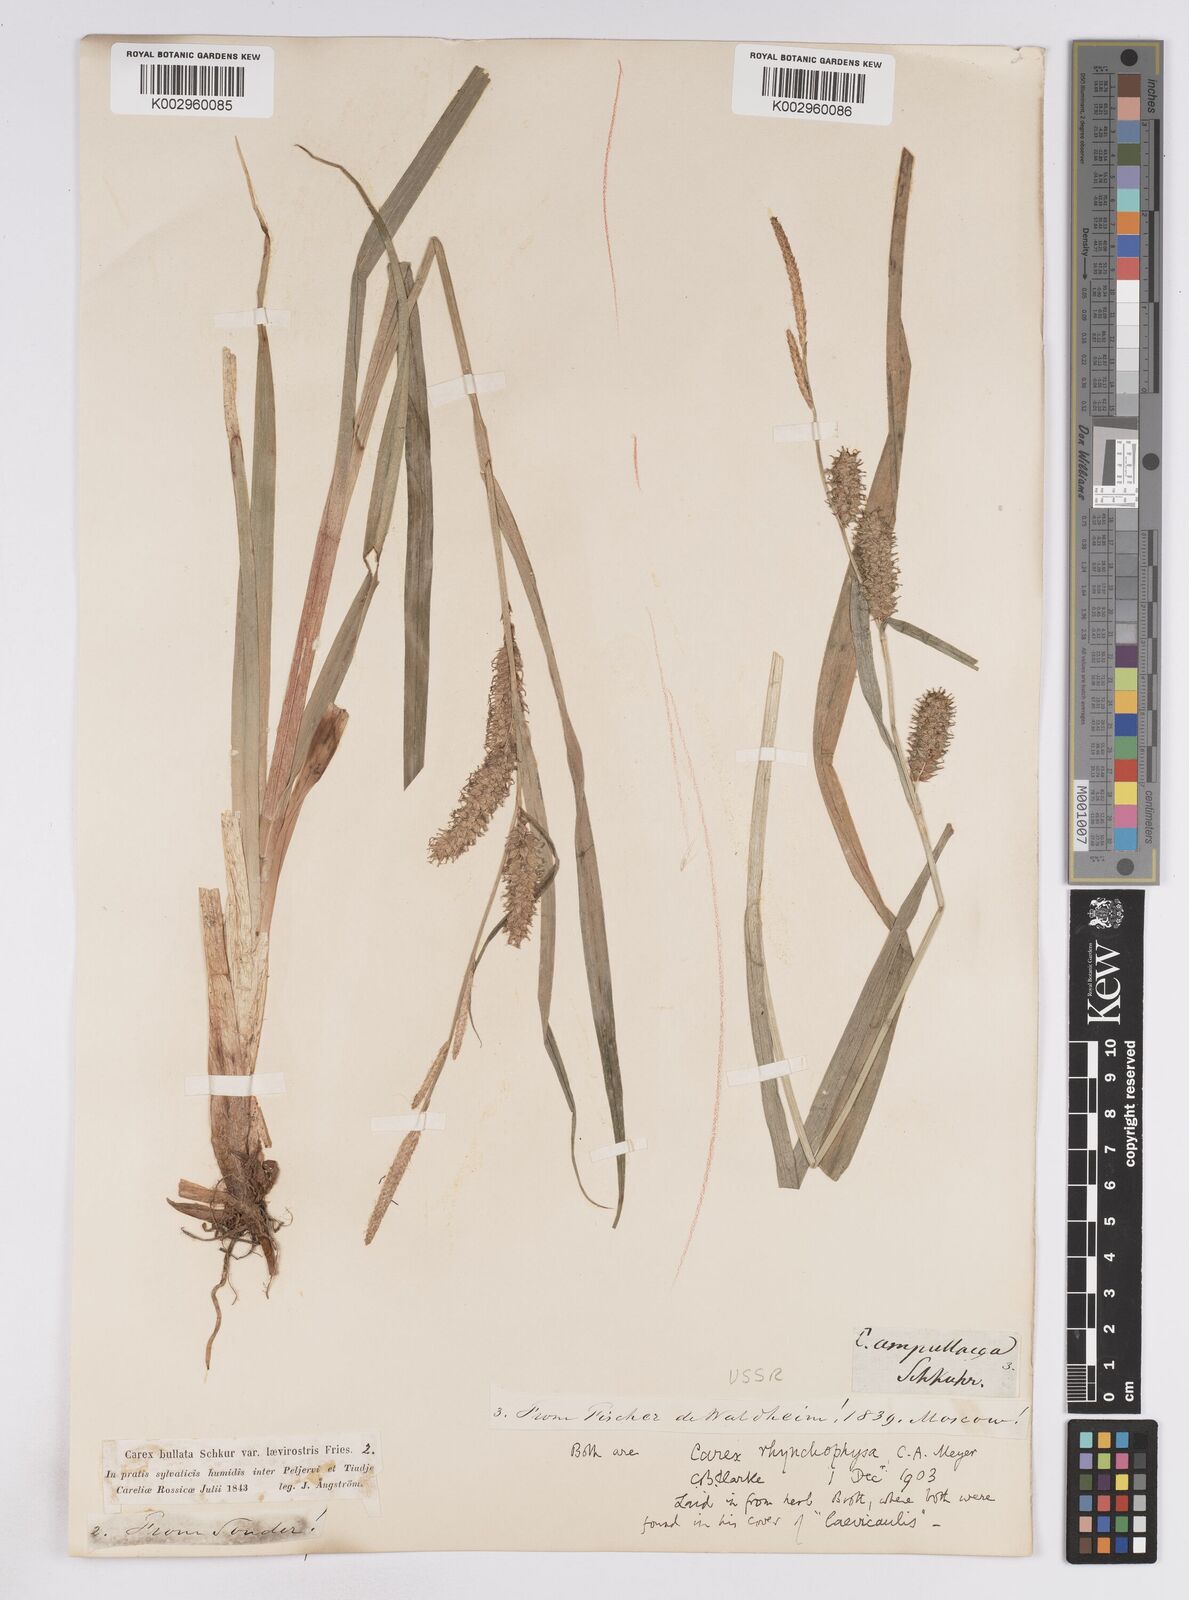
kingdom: Plantae
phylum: Tracheophyta
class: Liliopsida
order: Poales
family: Cyperaceae
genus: Carex
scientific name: Carex utriculata
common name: Beaked sedge
